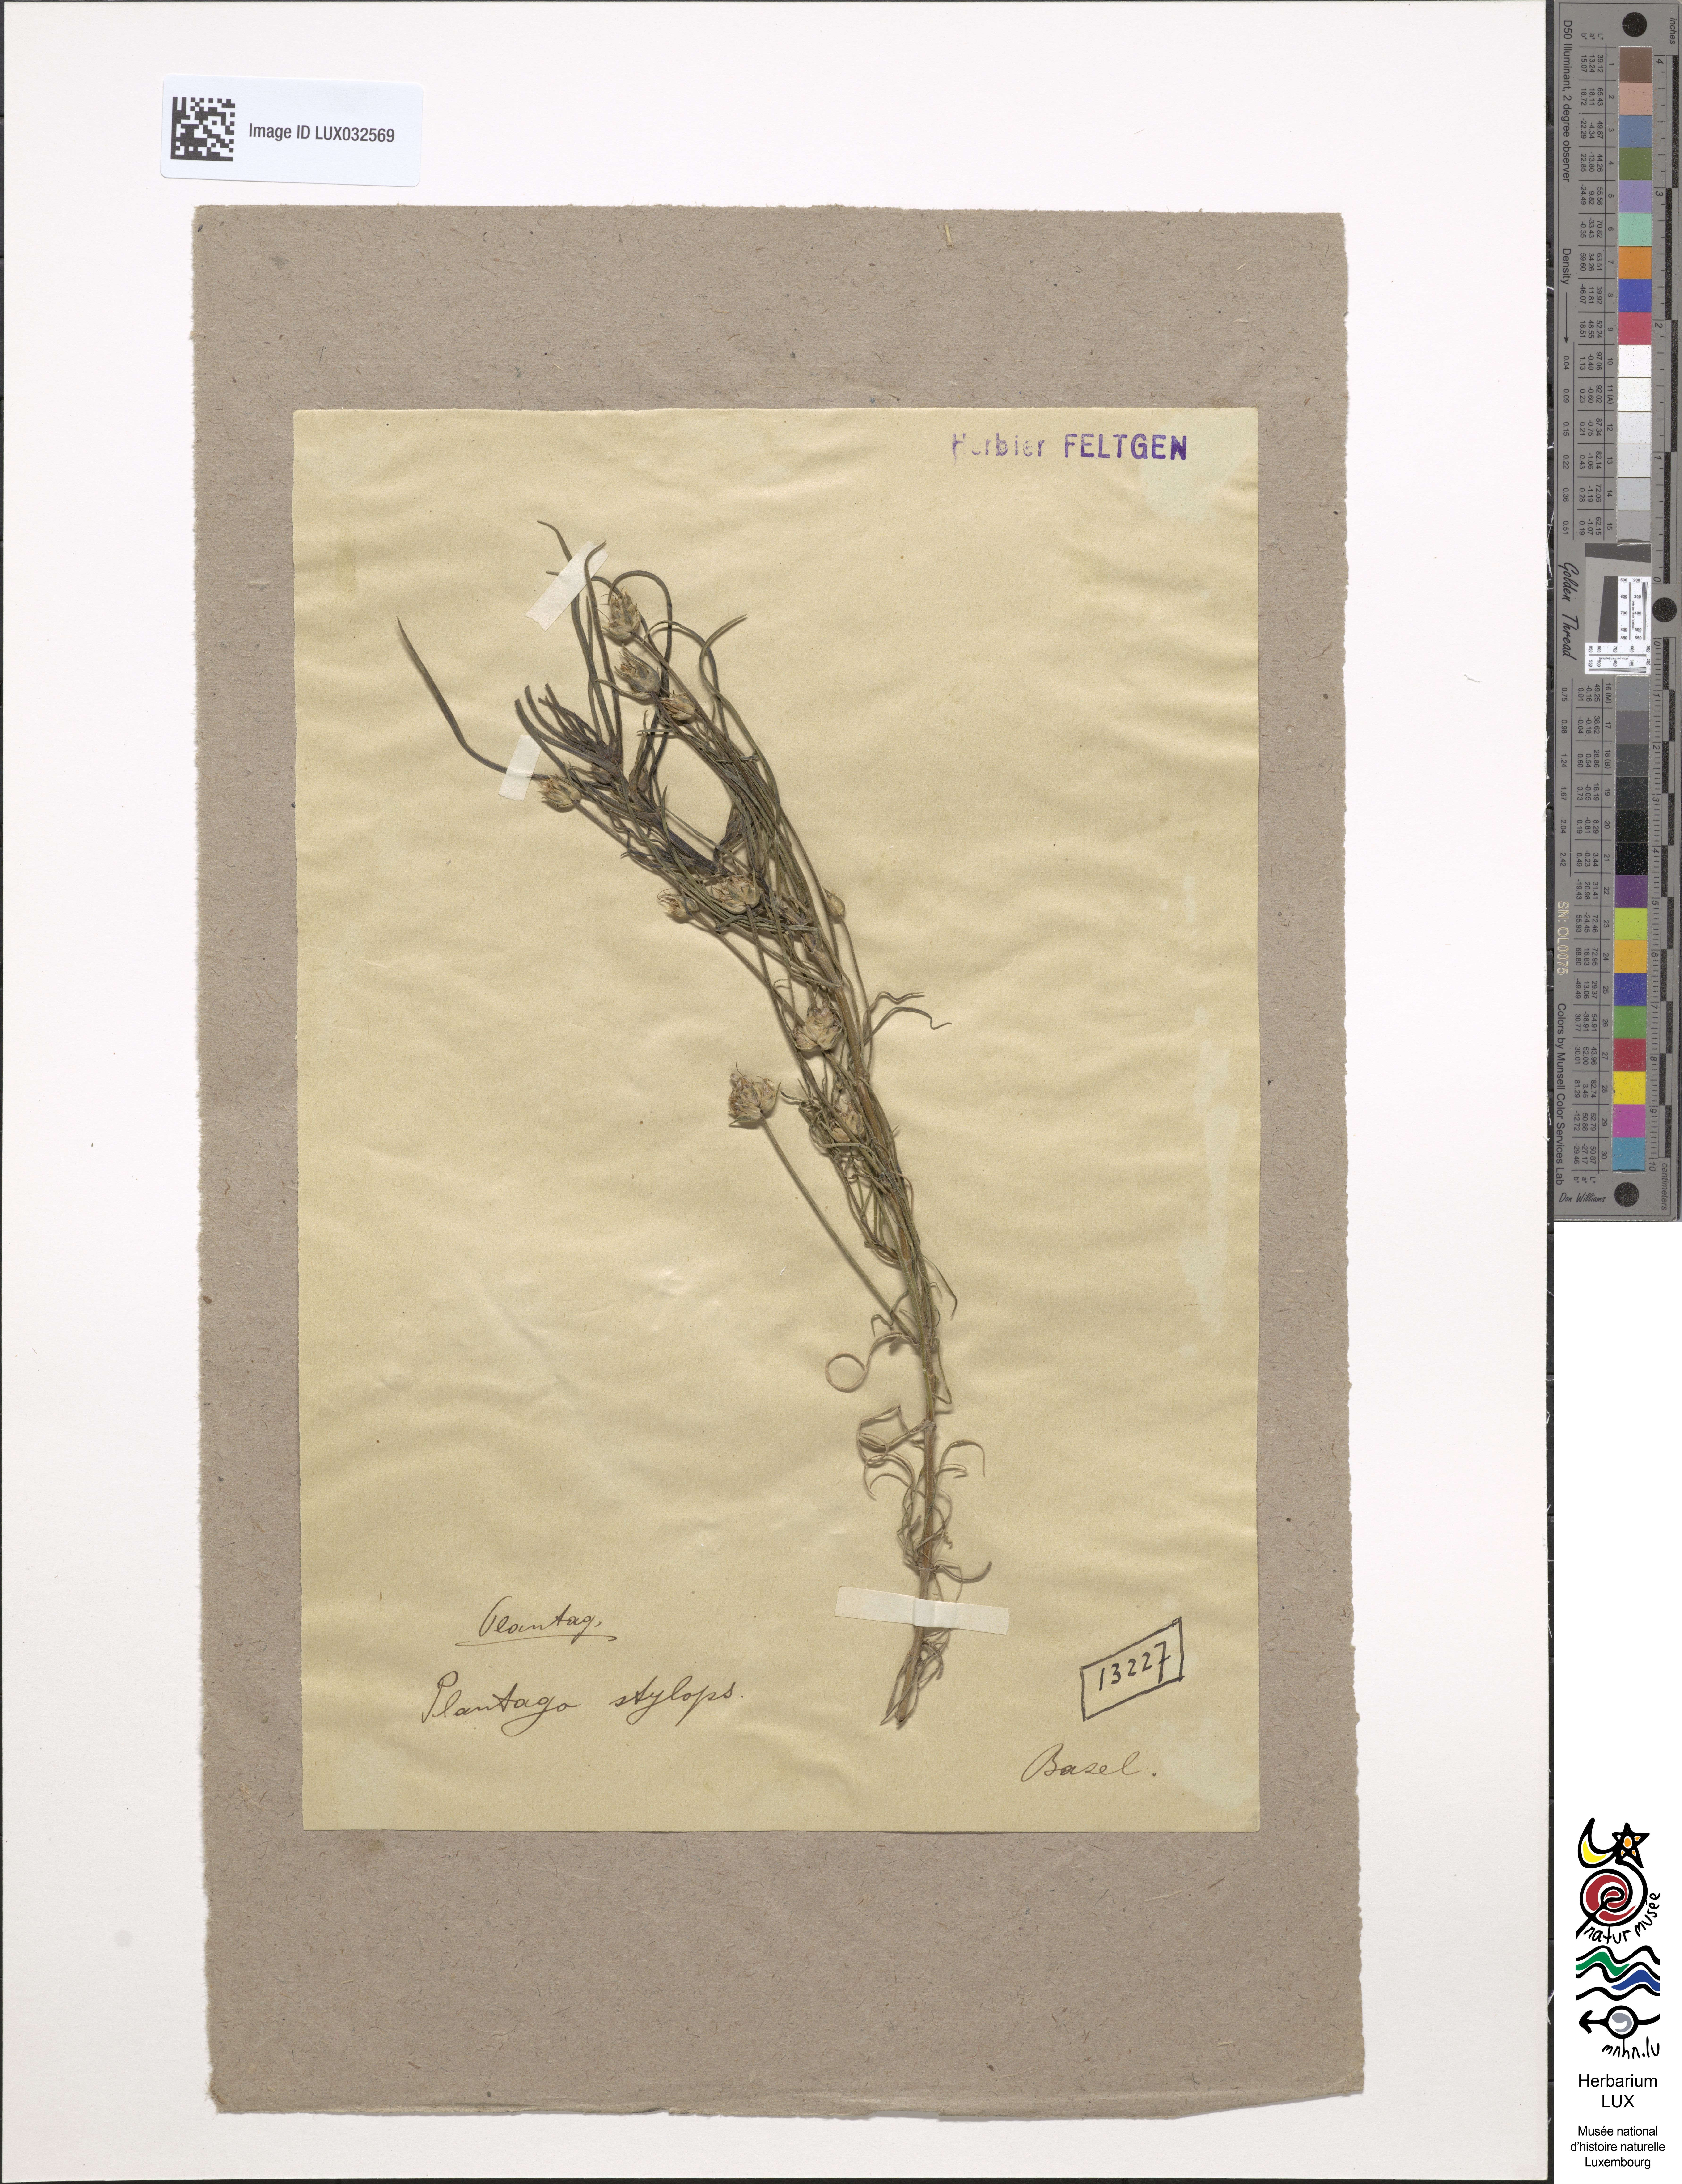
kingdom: Plantae
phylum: Tracheophyta
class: Magnoliopsida
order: Lamiales
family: Plantaginaceae
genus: Plantago
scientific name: Plantago sempervirens
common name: Shrubby plantain
